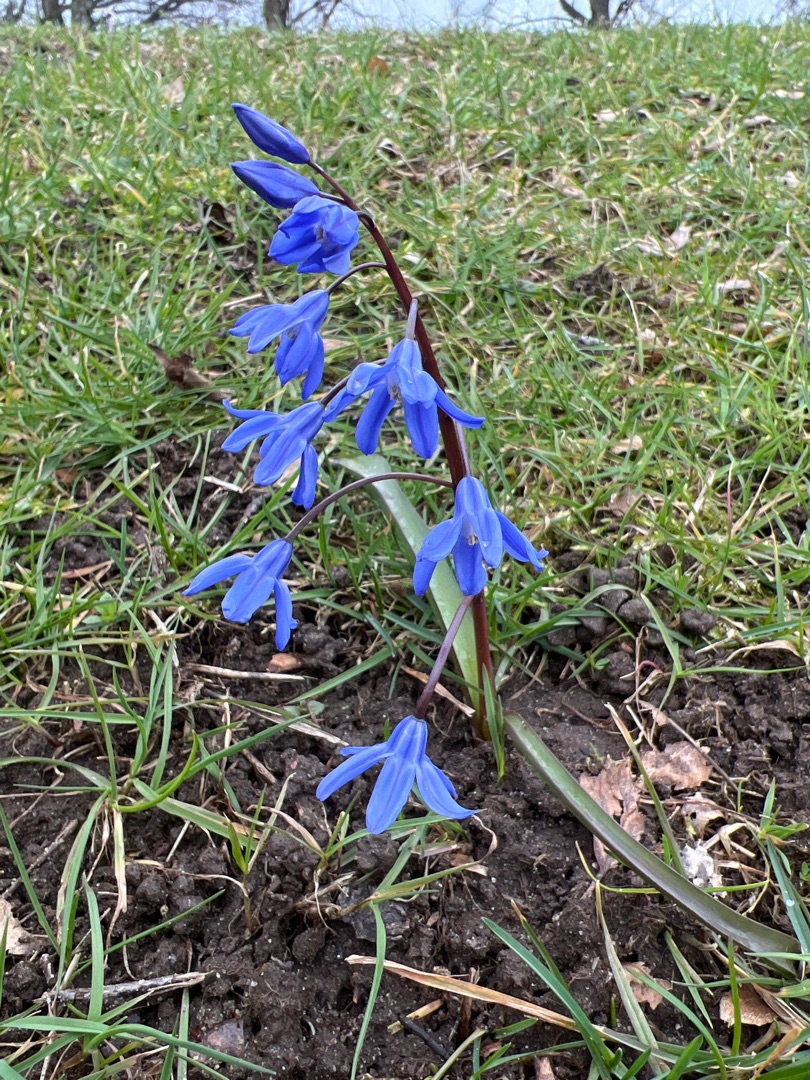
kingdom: Plantae
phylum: Tracheophyta
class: Liliopsida
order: Asparagales
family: Asparagaceae
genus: Scilla
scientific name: Scilla sardensis
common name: Liden snepryd
